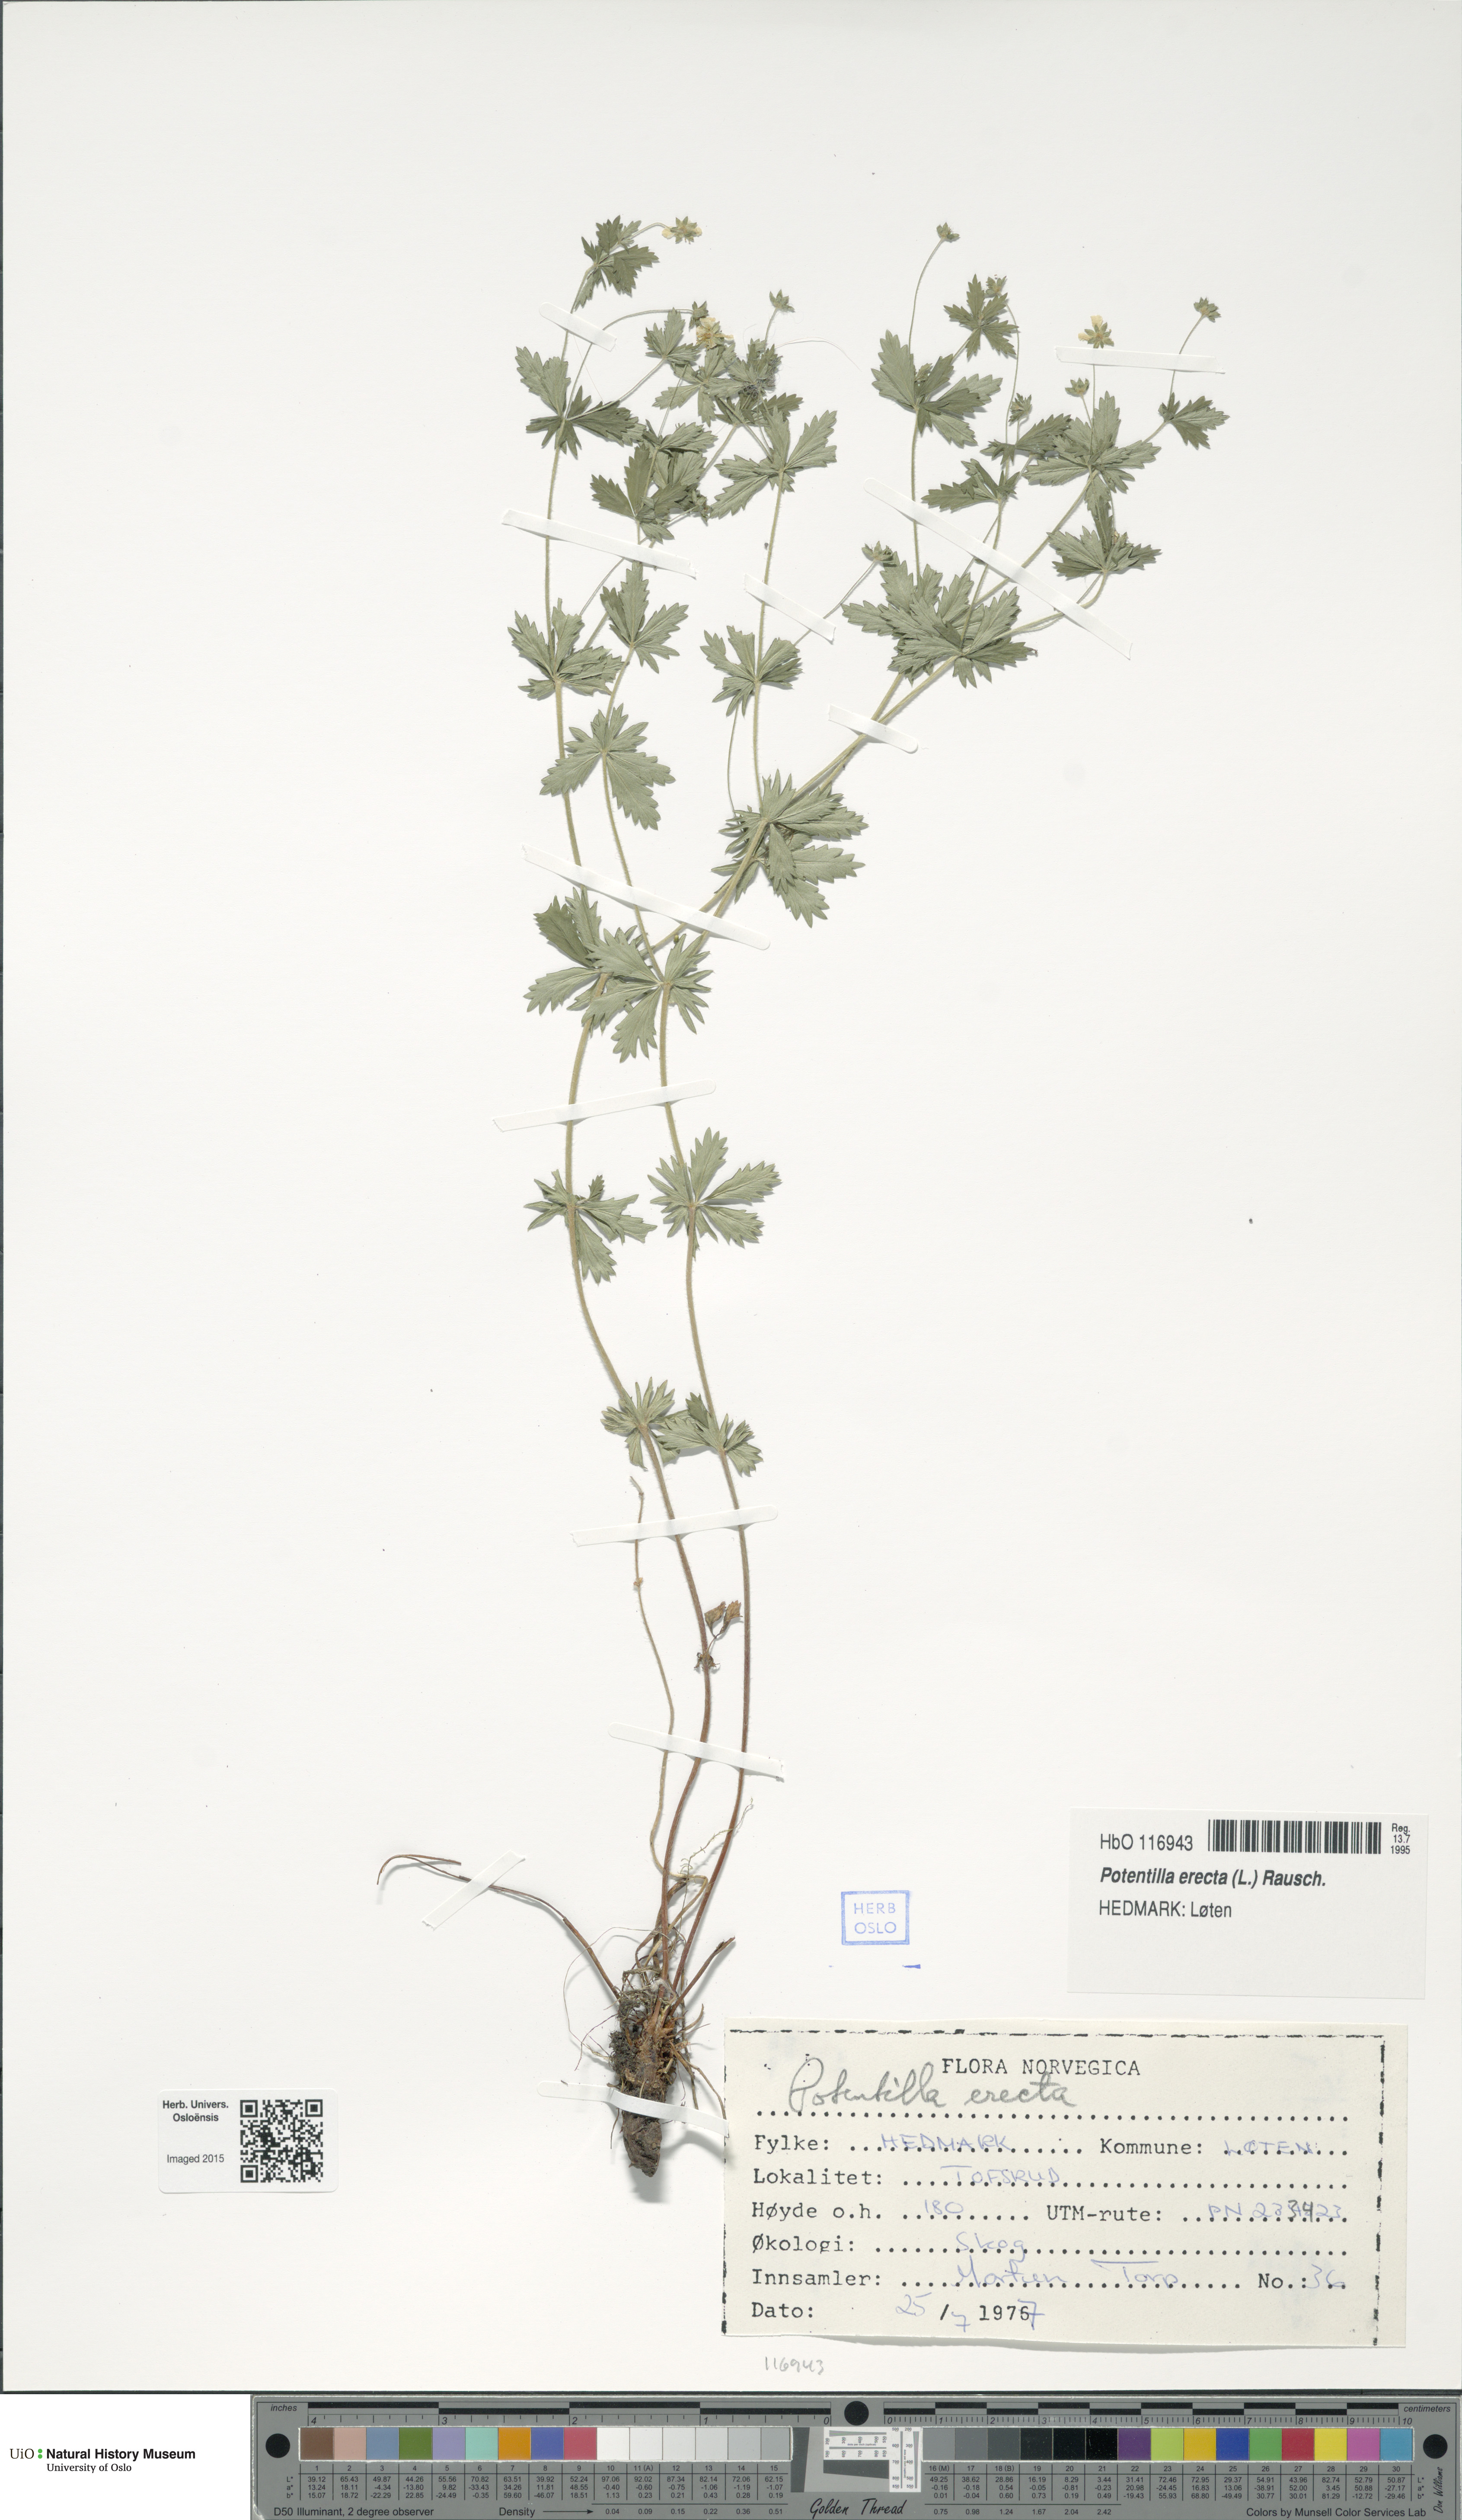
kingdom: Plantae
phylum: Tracheophyta
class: Magnoliopsida
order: Rosales
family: Rosaceae
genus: Potentilla
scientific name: Potentilla erecta
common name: Tormentil
